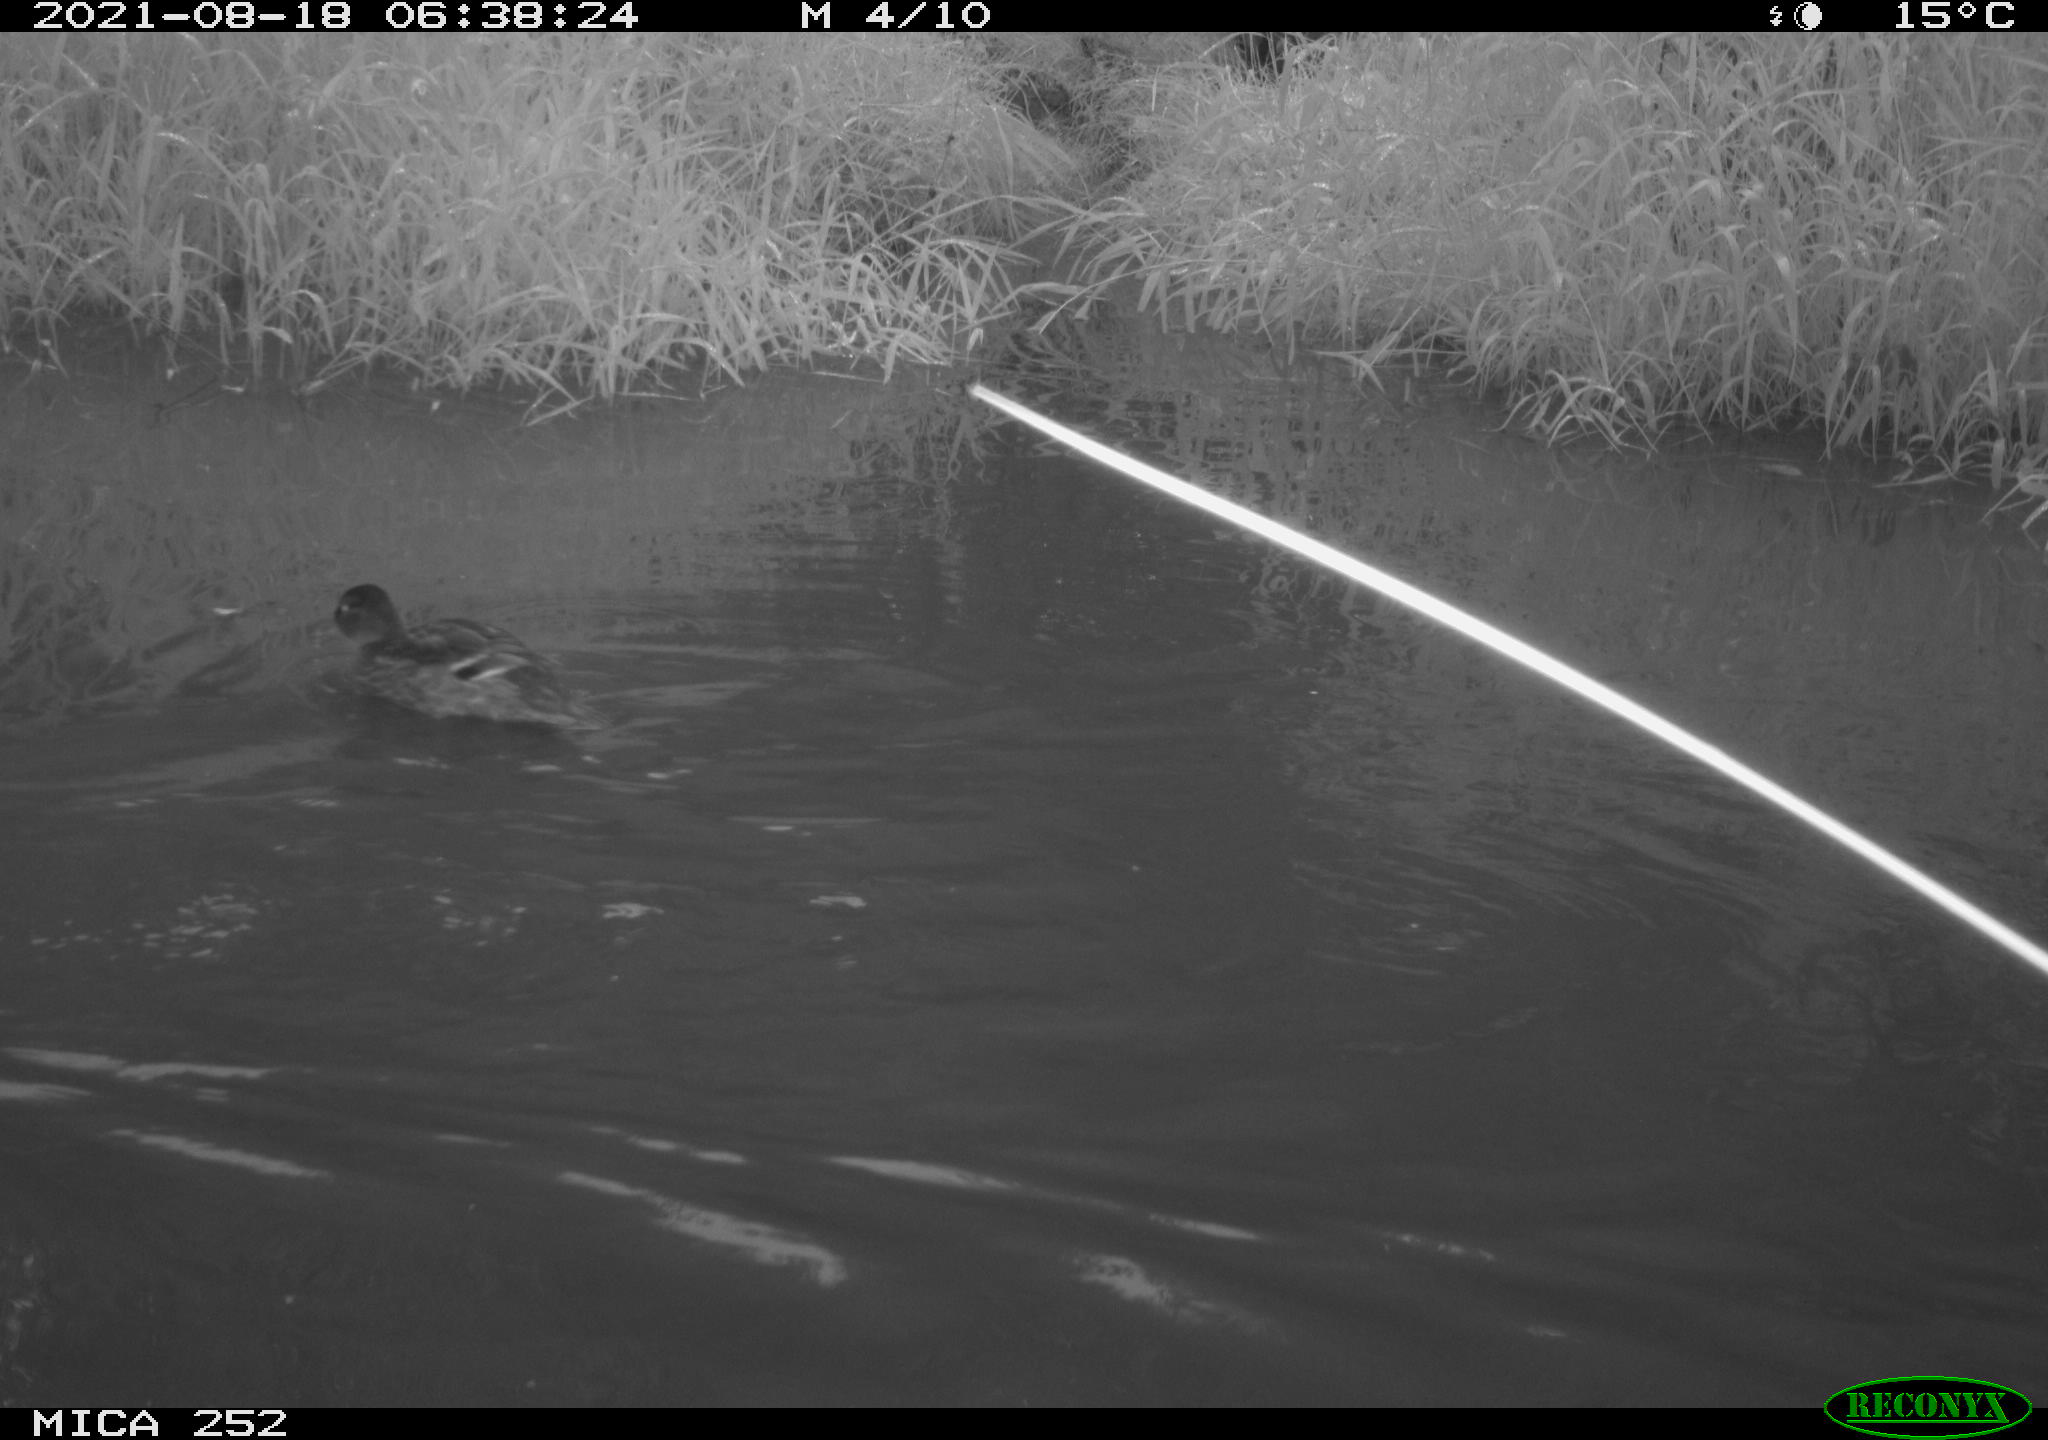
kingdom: Animalia
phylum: Chordata
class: Aves
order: Anseriformes
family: Anatidae
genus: Anas
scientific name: Anas
